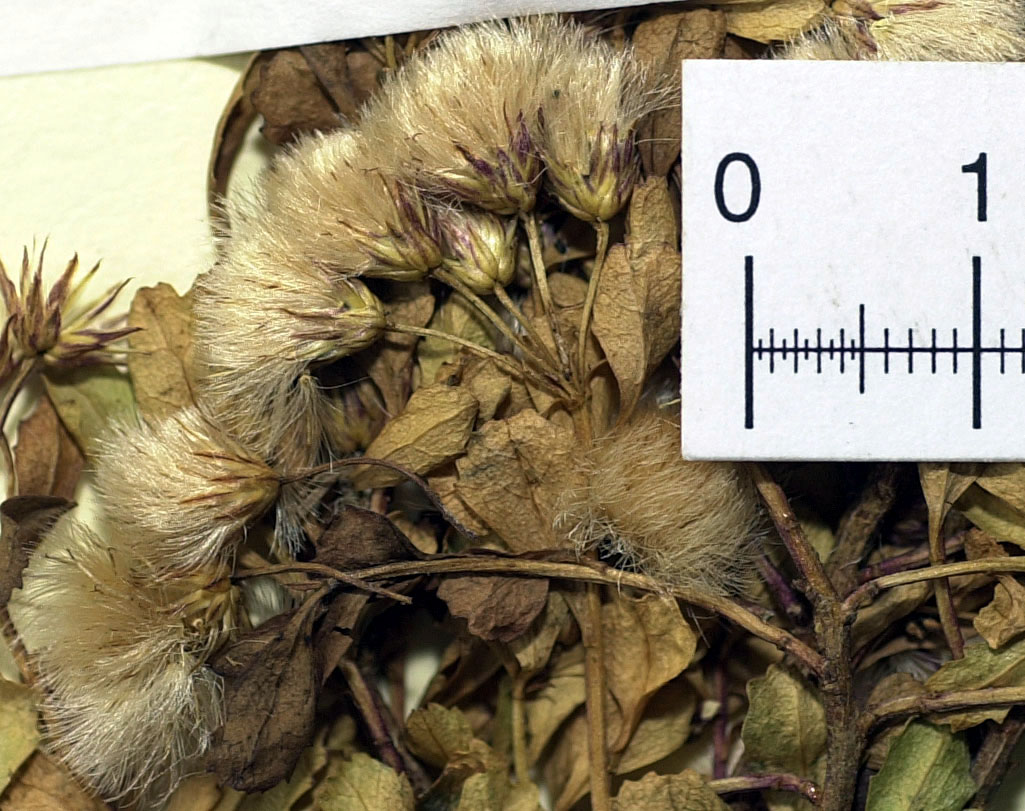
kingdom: Plantae
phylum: Tracheophyta
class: Magnoliopsida
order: Asterales
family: Asteraceae
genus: Baccharis
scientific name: Baccharis poeppigiana
